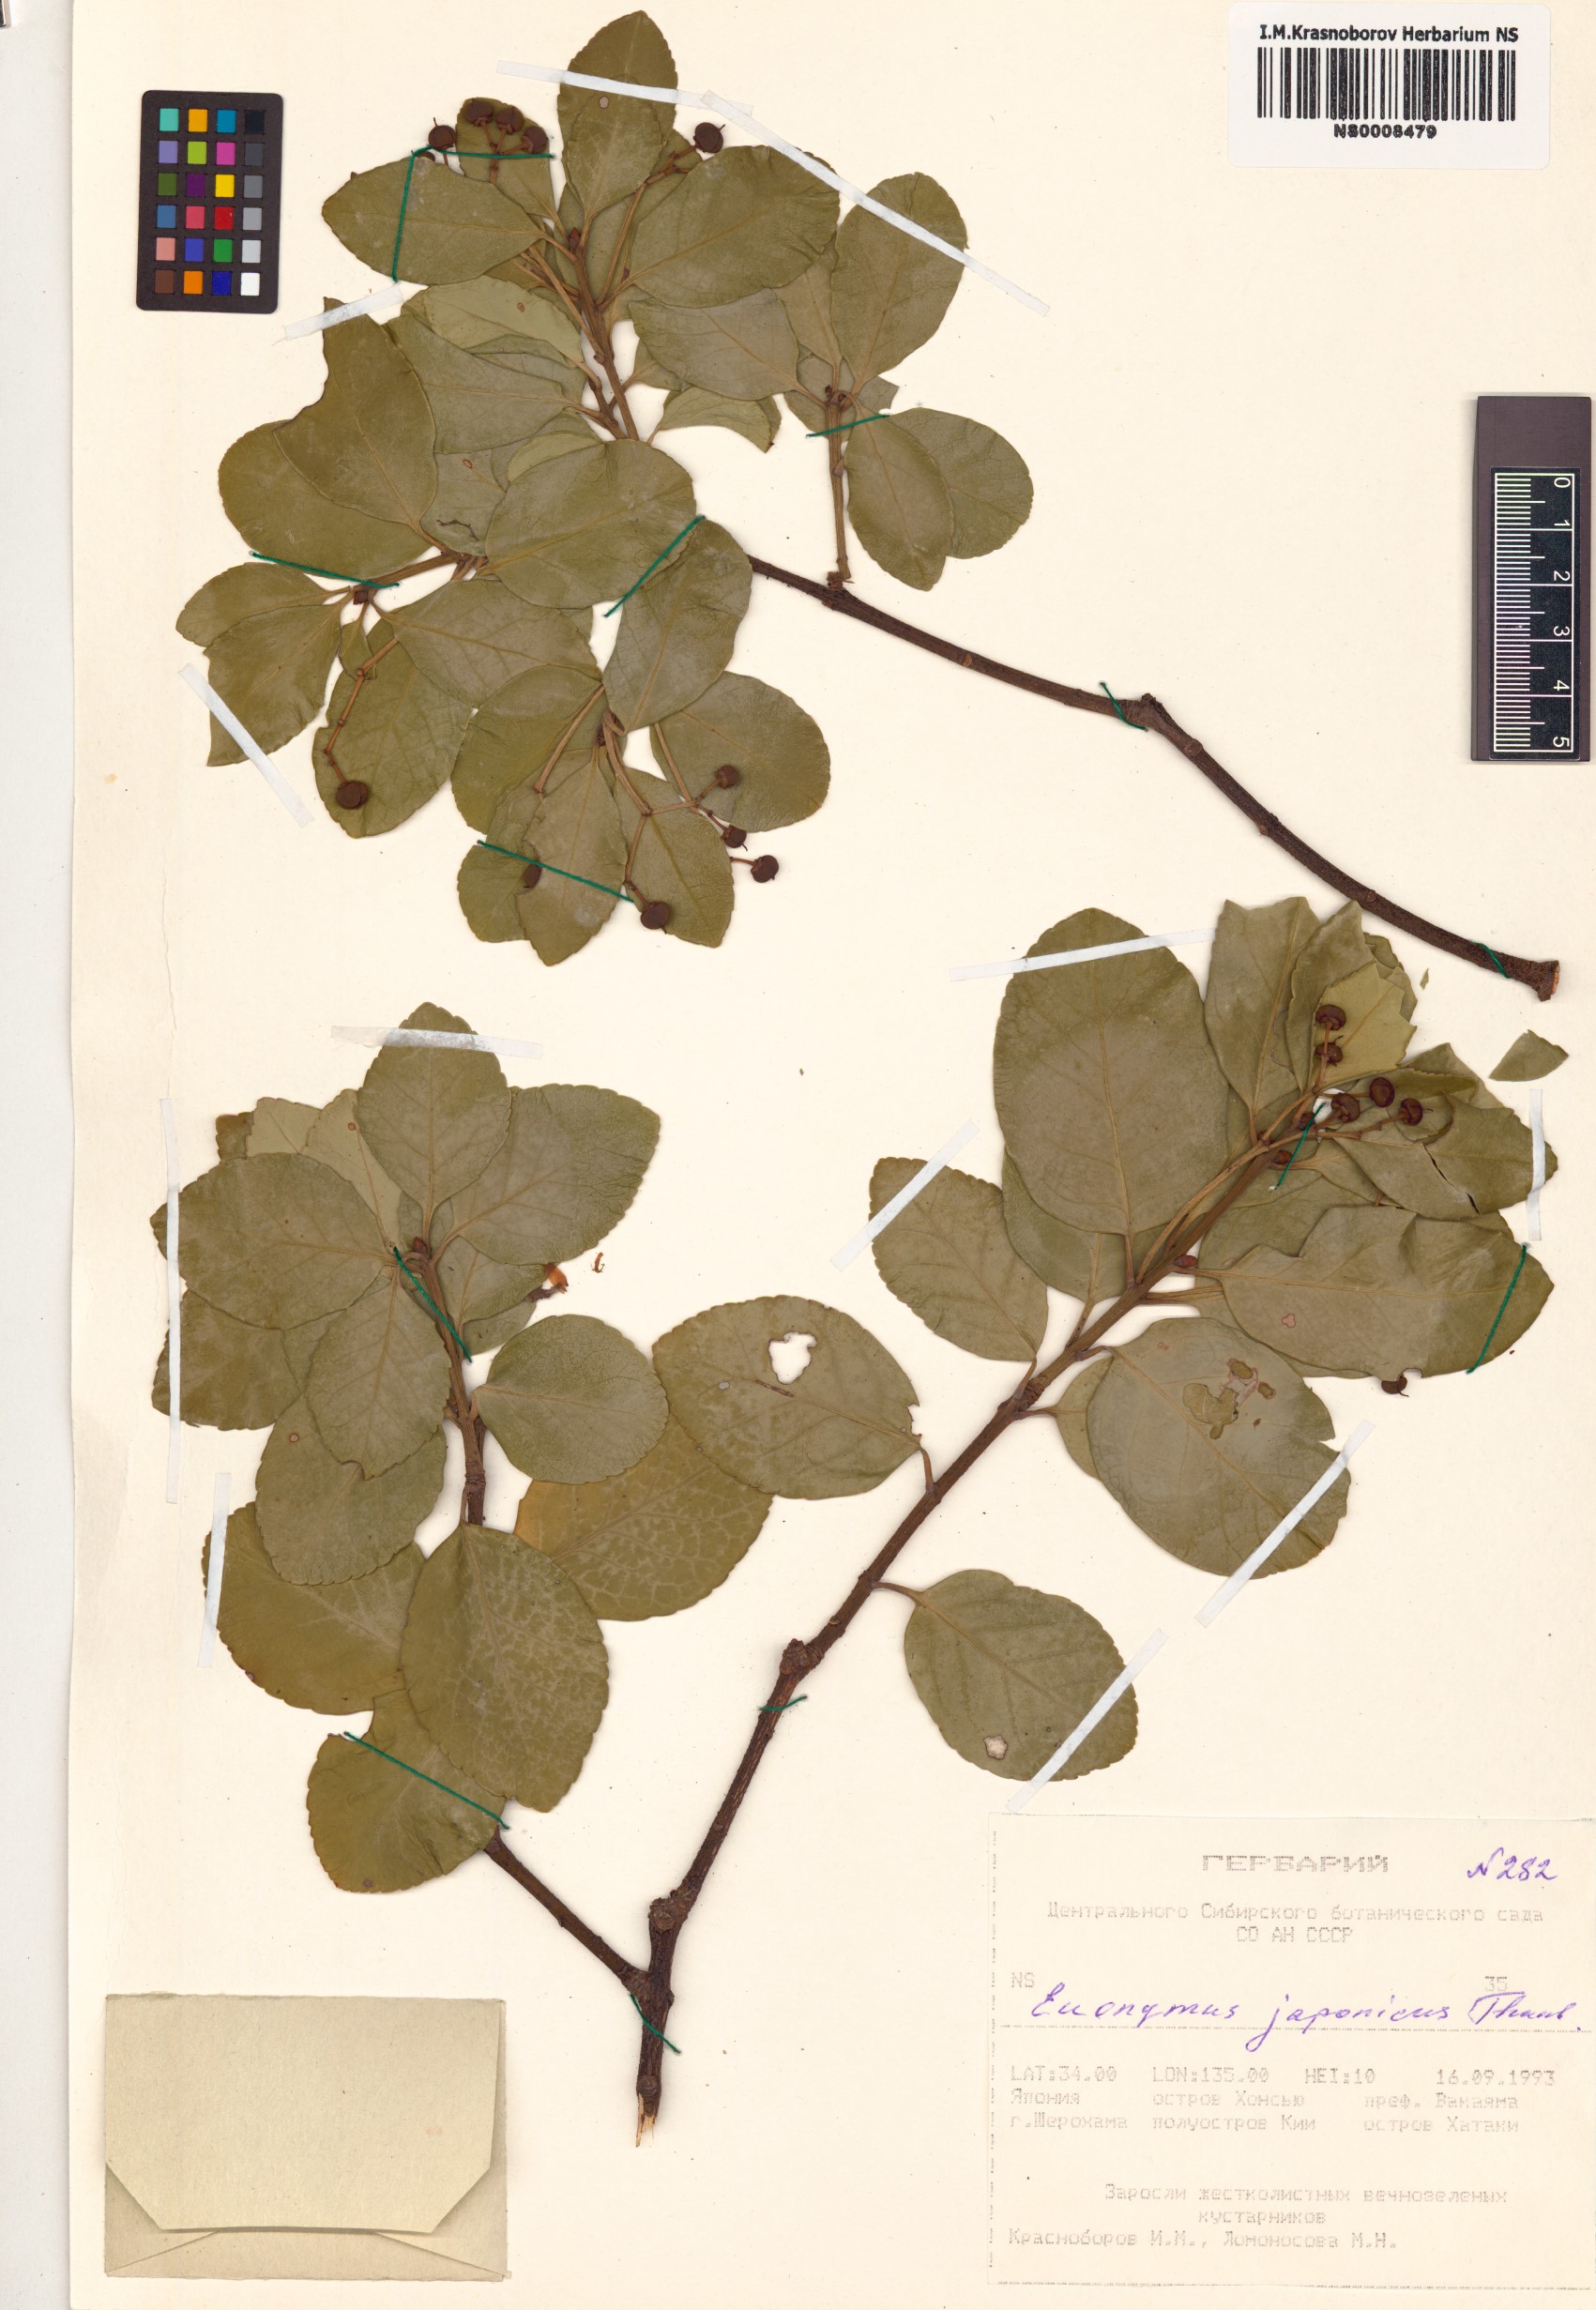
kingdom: Plantae
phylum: Tracheophyta
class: Magnoliopsida
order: Celastrales
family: Celastraceae
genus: Euonymus
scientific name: Euonymus japonicus
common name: Japanese spindletree
